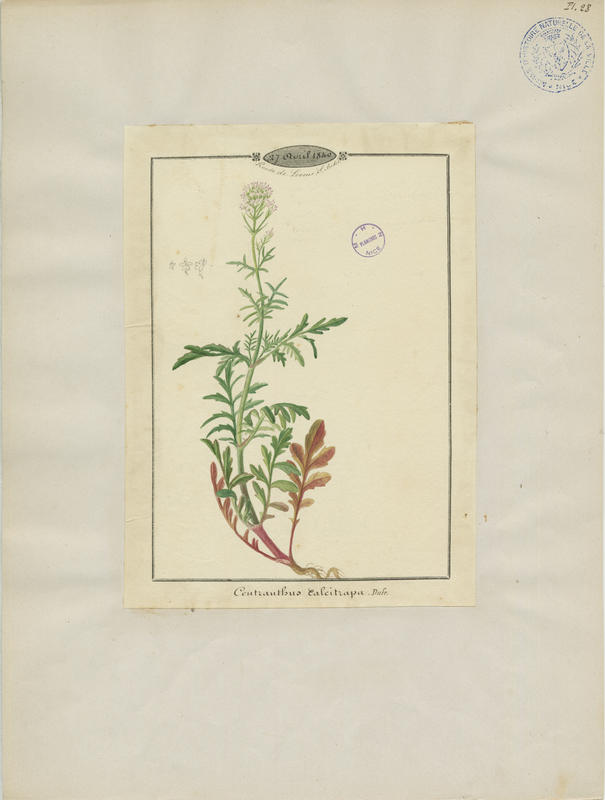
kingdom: Plantae
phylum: Tracheophyta
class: Magnoliopsida
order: Dipsacales
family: Caprifoliaceae
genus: Centranthus
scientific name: Centranthus calcitrapae
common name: Annual valerian
